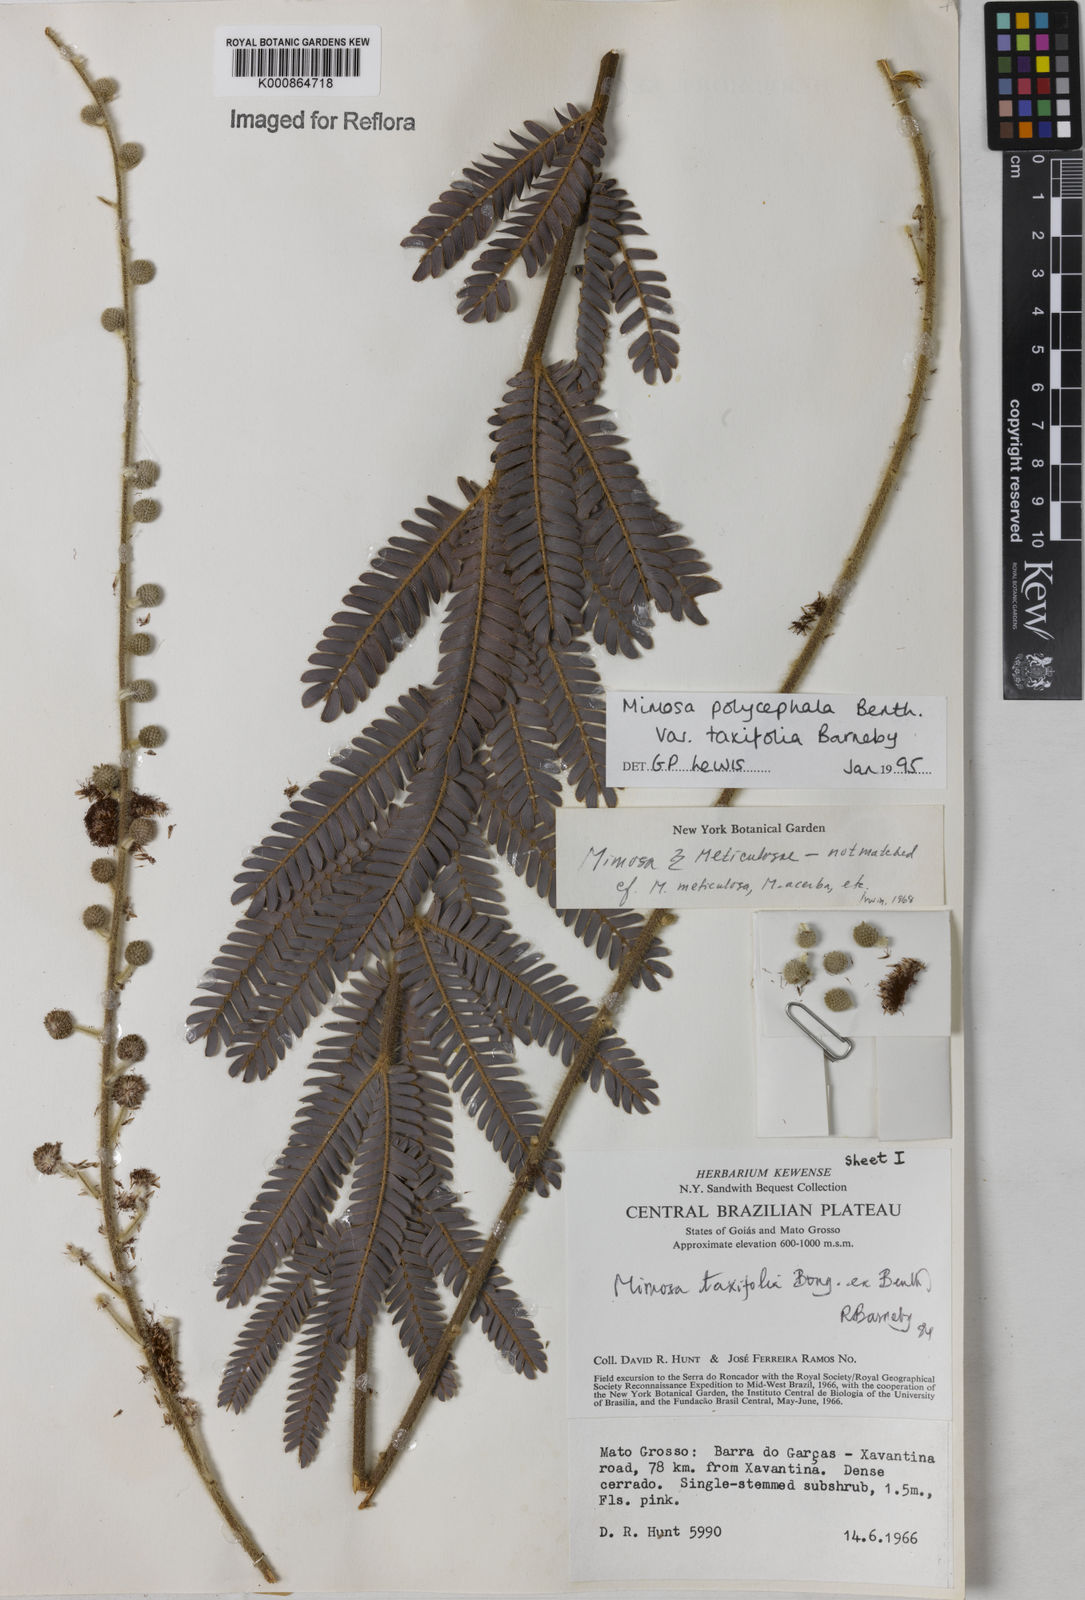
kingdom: Plantae
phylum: Tracheophyta
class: Magnoliopsida
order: Fabales
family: Fabaceae
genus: Mimosa
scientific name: Mimosa polycephala
